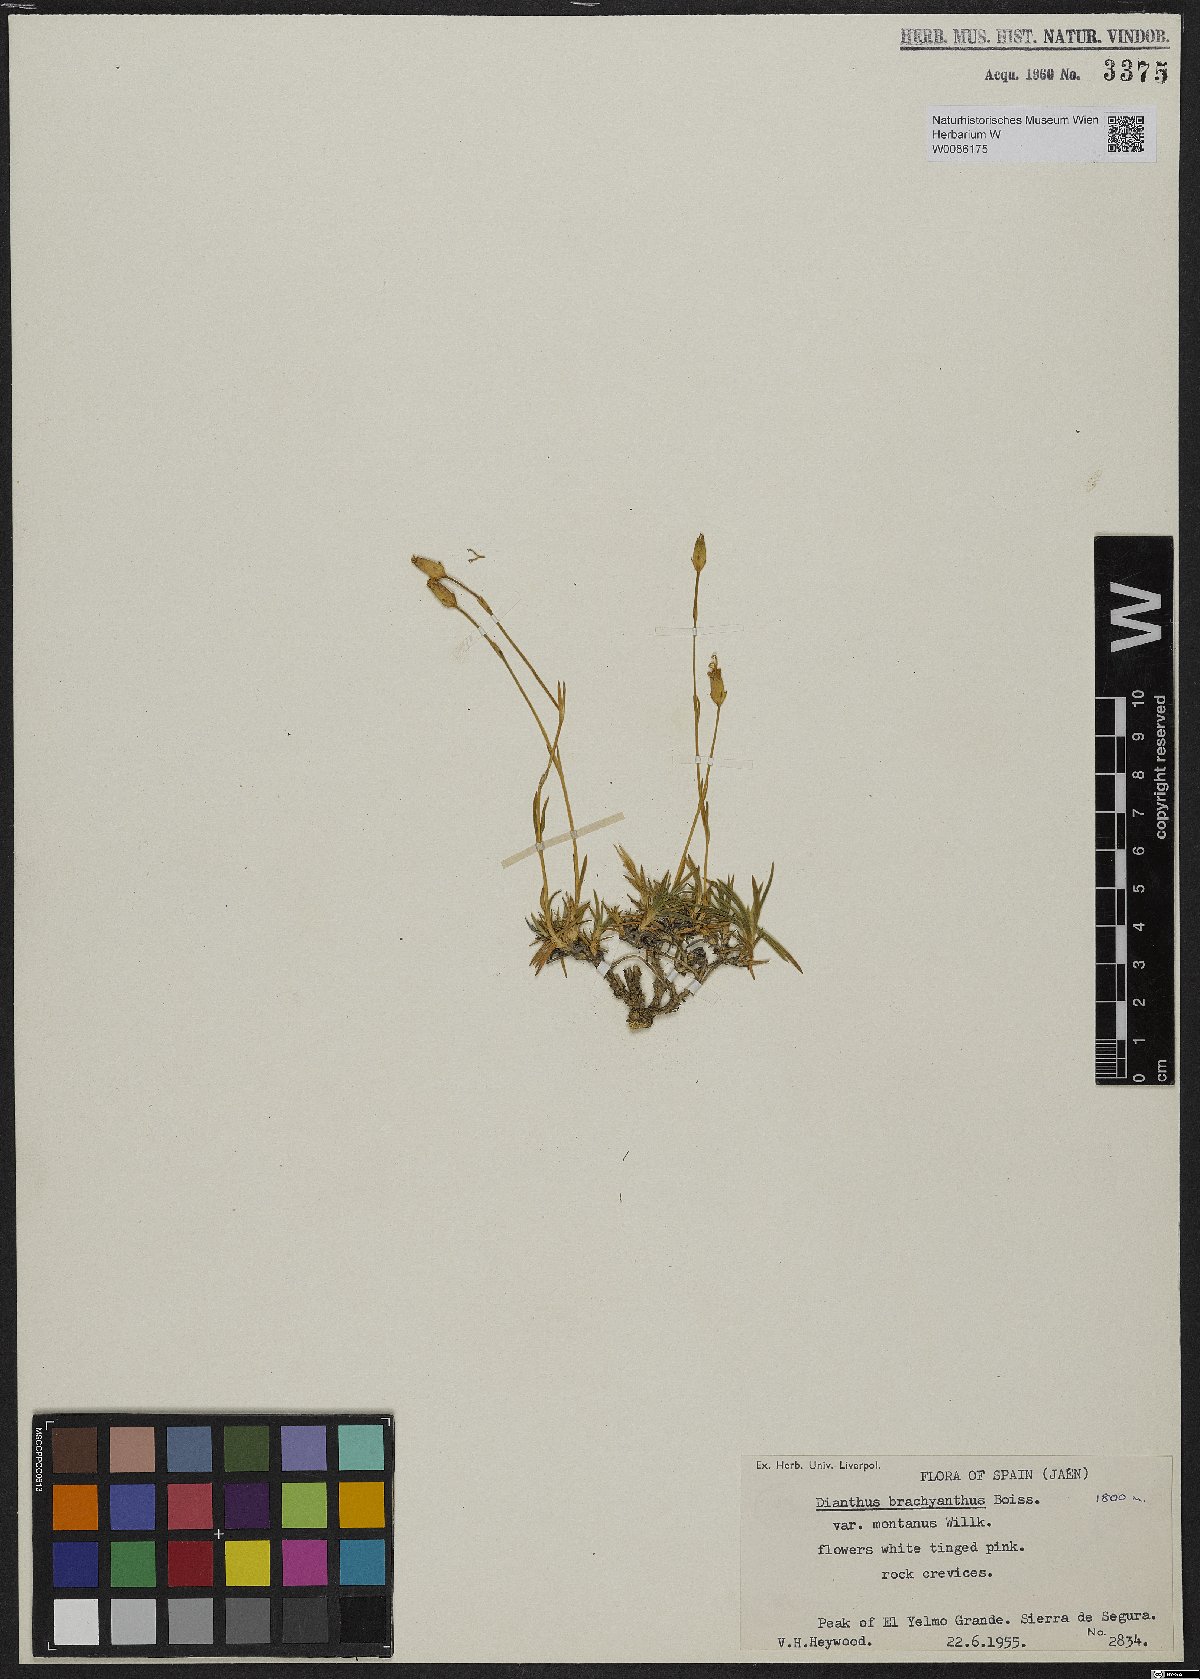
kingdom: Plantae
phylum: Tracheophyta
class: Magnoliopsida
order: Caryophyllales
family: Caryophyllaceae
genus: Dianthus
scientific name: Dianthus subacaulis
